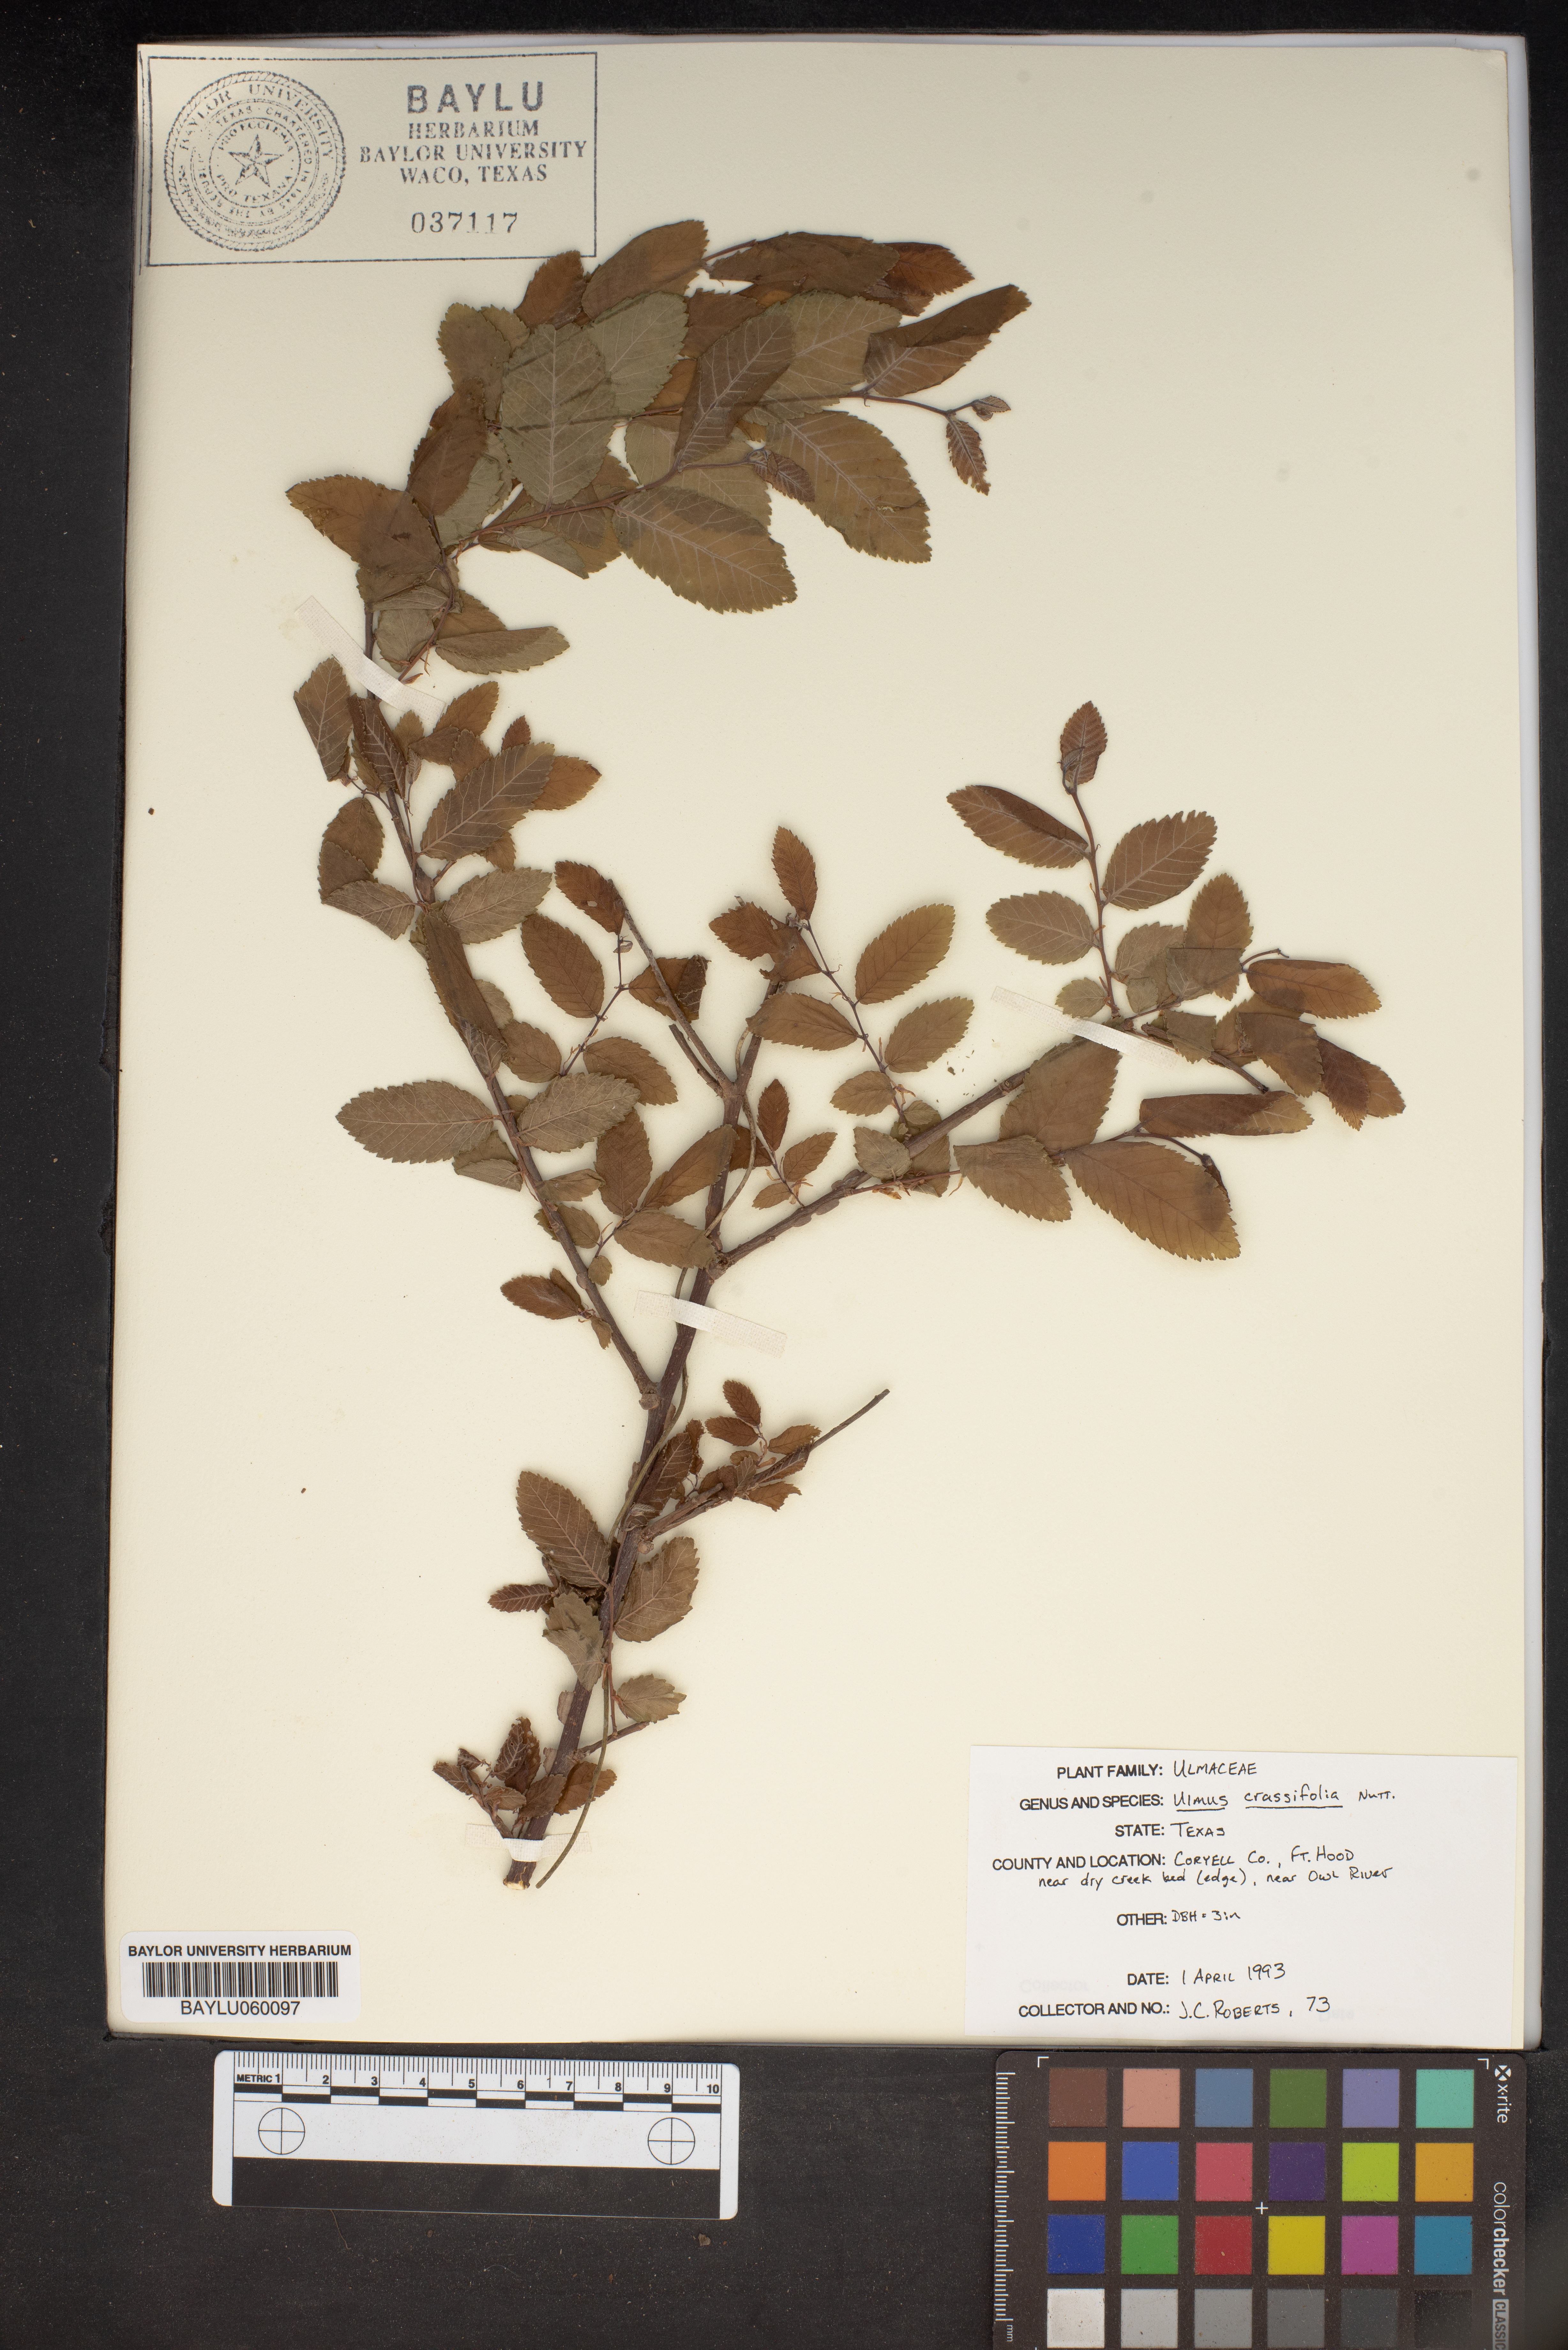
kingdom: Plantae
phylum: Tracheophyta
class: Magnoliopsida
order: Rosales
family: Ulmaceae
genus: Ulmus
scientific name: Ulmus crassifolia
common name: Basket elm
